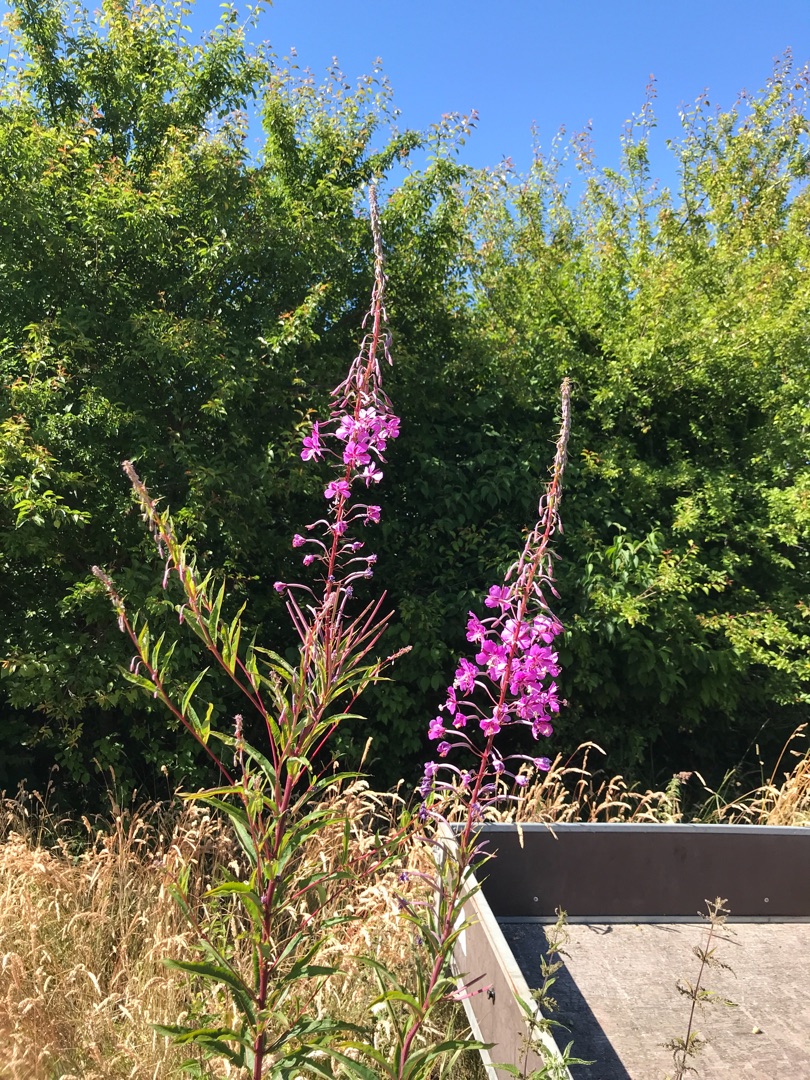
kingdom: Plantae
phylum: Tracheophyta
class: Magnoliopsida
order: Myrtales
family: Onagraceae
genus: Chamaenerion
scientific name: Chamaenerion angustifolium
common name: Gederams
